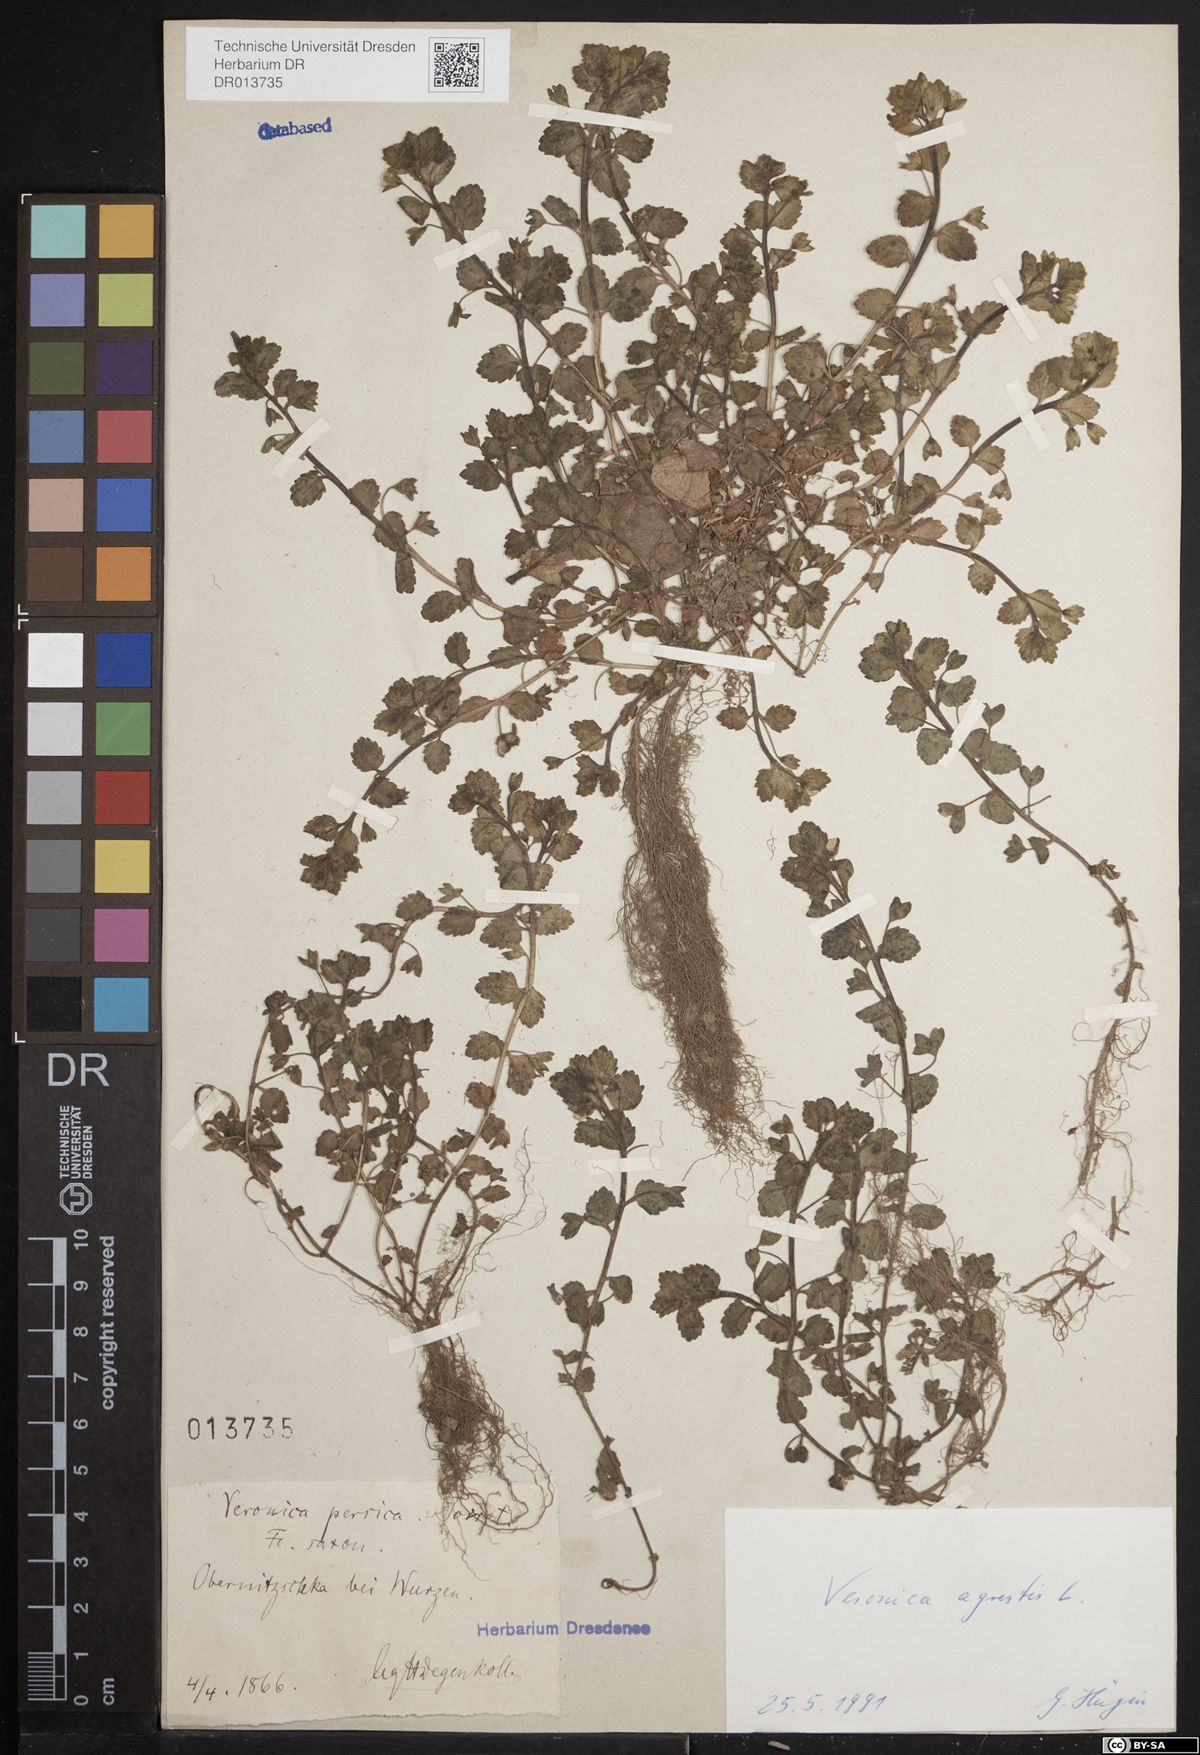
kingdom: Plantae
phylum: Tracheophyta
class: Magnoliopsida
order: Lamiales
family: Plantaginaceae
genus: Veronica
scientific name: Veronica agrestis
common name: Green field-speedwell
